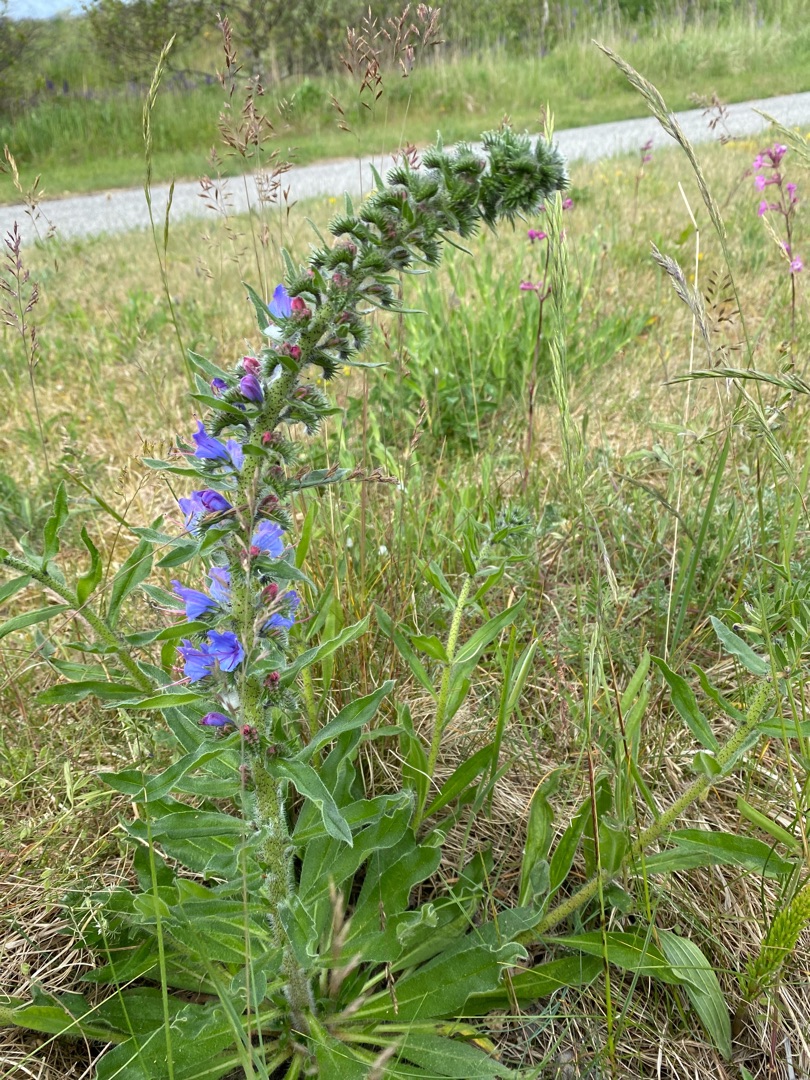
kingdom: Plantae
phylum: Tracheophyta
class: Magnoliopsida
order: Boraginales
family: Boraginaceae
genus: Echium
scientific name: Echium vulgare
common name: Slangehoved
